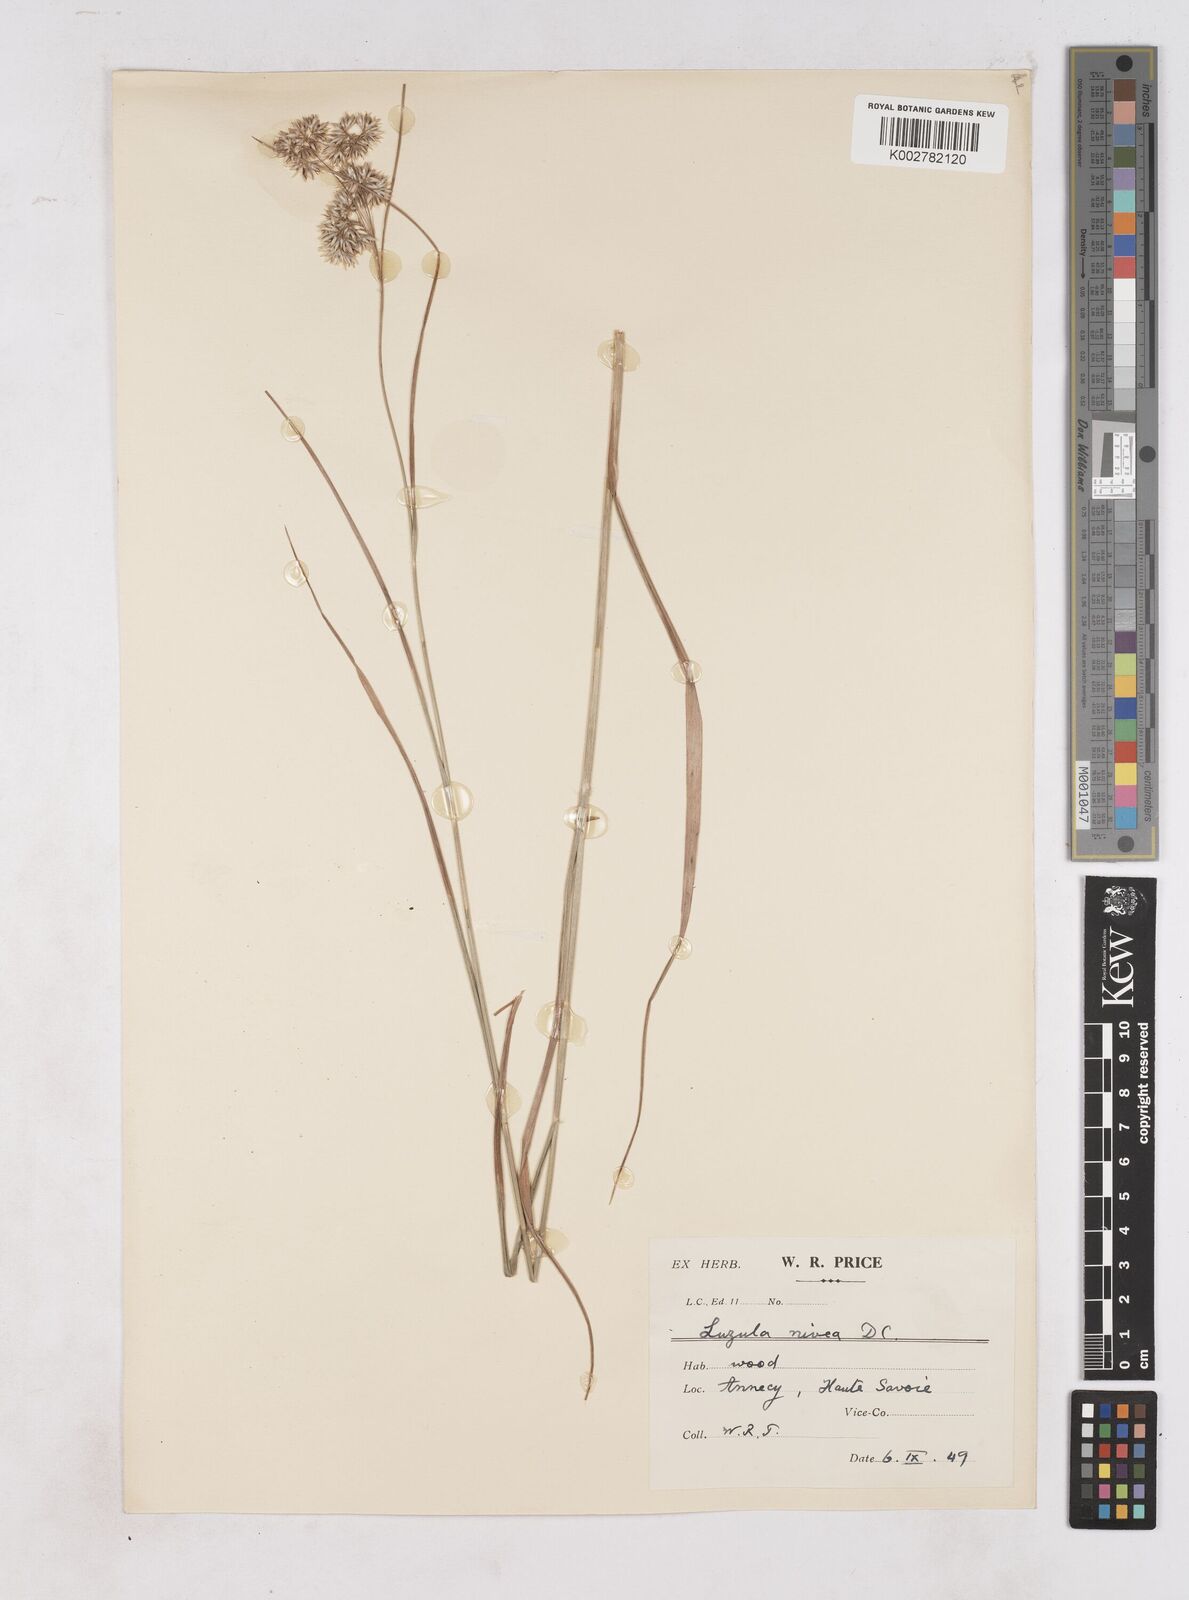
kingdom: Plantae
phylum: Tracheophyta
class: Liliopsida
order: Poales
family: Juncaceae
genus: Luzula
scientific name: Luzula nivea
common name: Snow-white wood-rush
